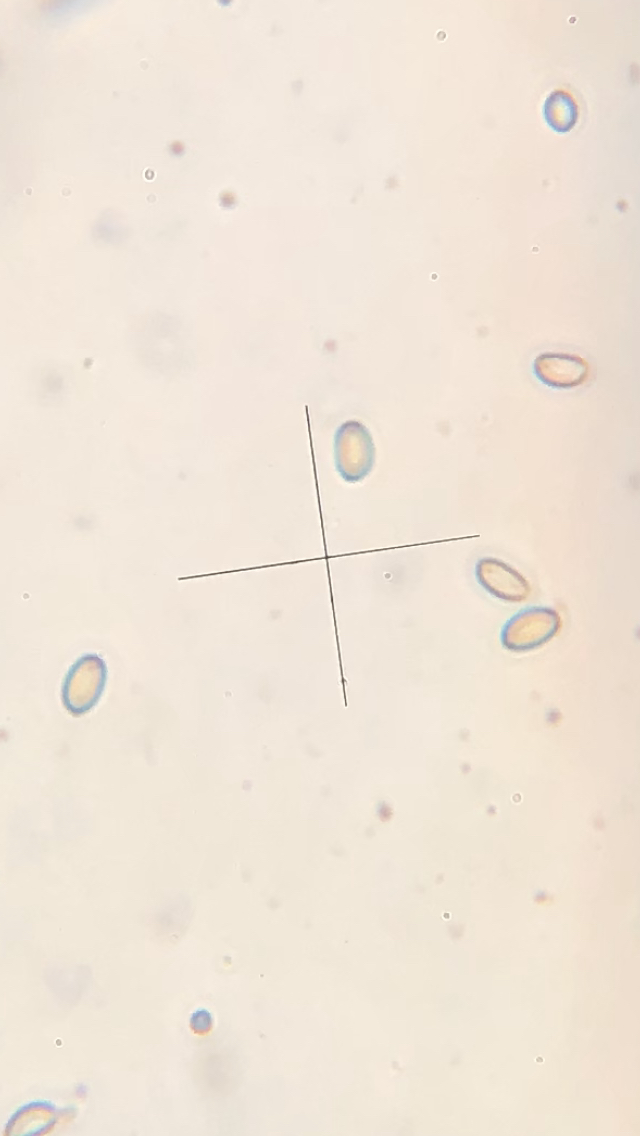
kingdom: Fungi
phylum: Basidiomycota
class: Agaricomycetes
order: Agaricales
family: Strophariaceae
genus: Agrocybe
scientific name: Agrocybe
